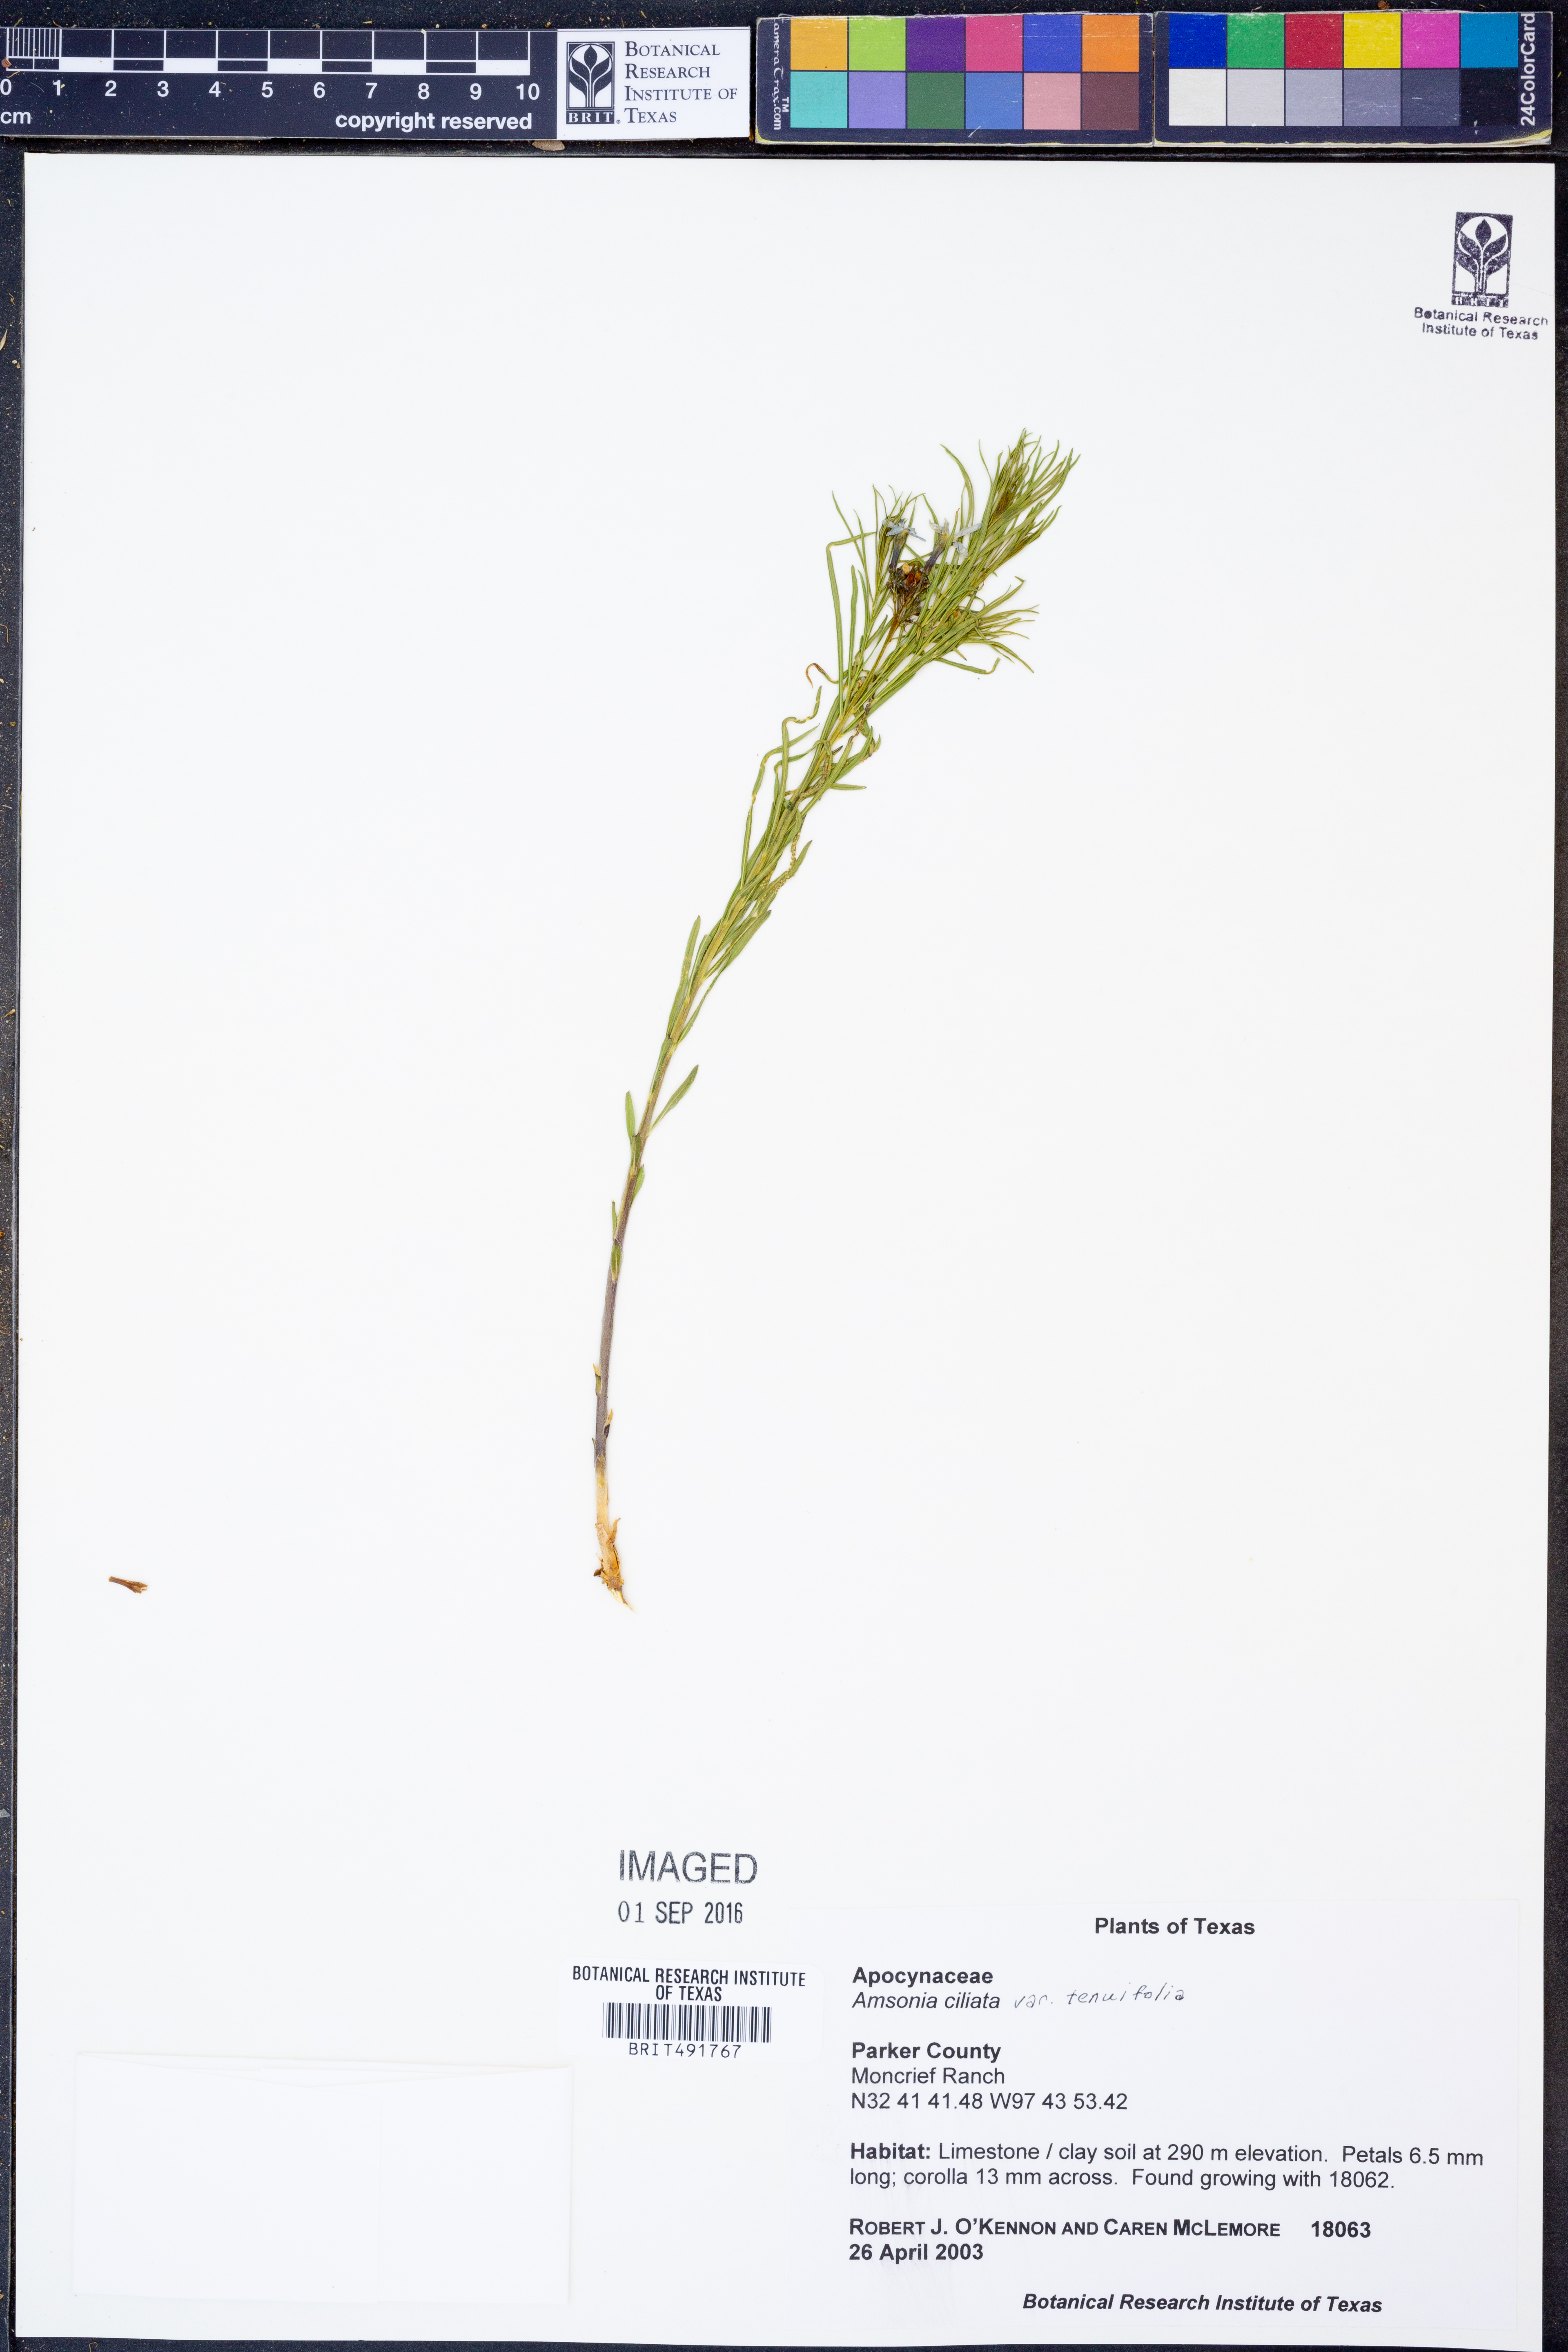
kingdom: Plantae
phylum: Tracheophyta
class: Magnoliopsida
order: Gentianales
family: Apocynaceae
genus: Amsonia
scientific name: Amsonia ciliata
